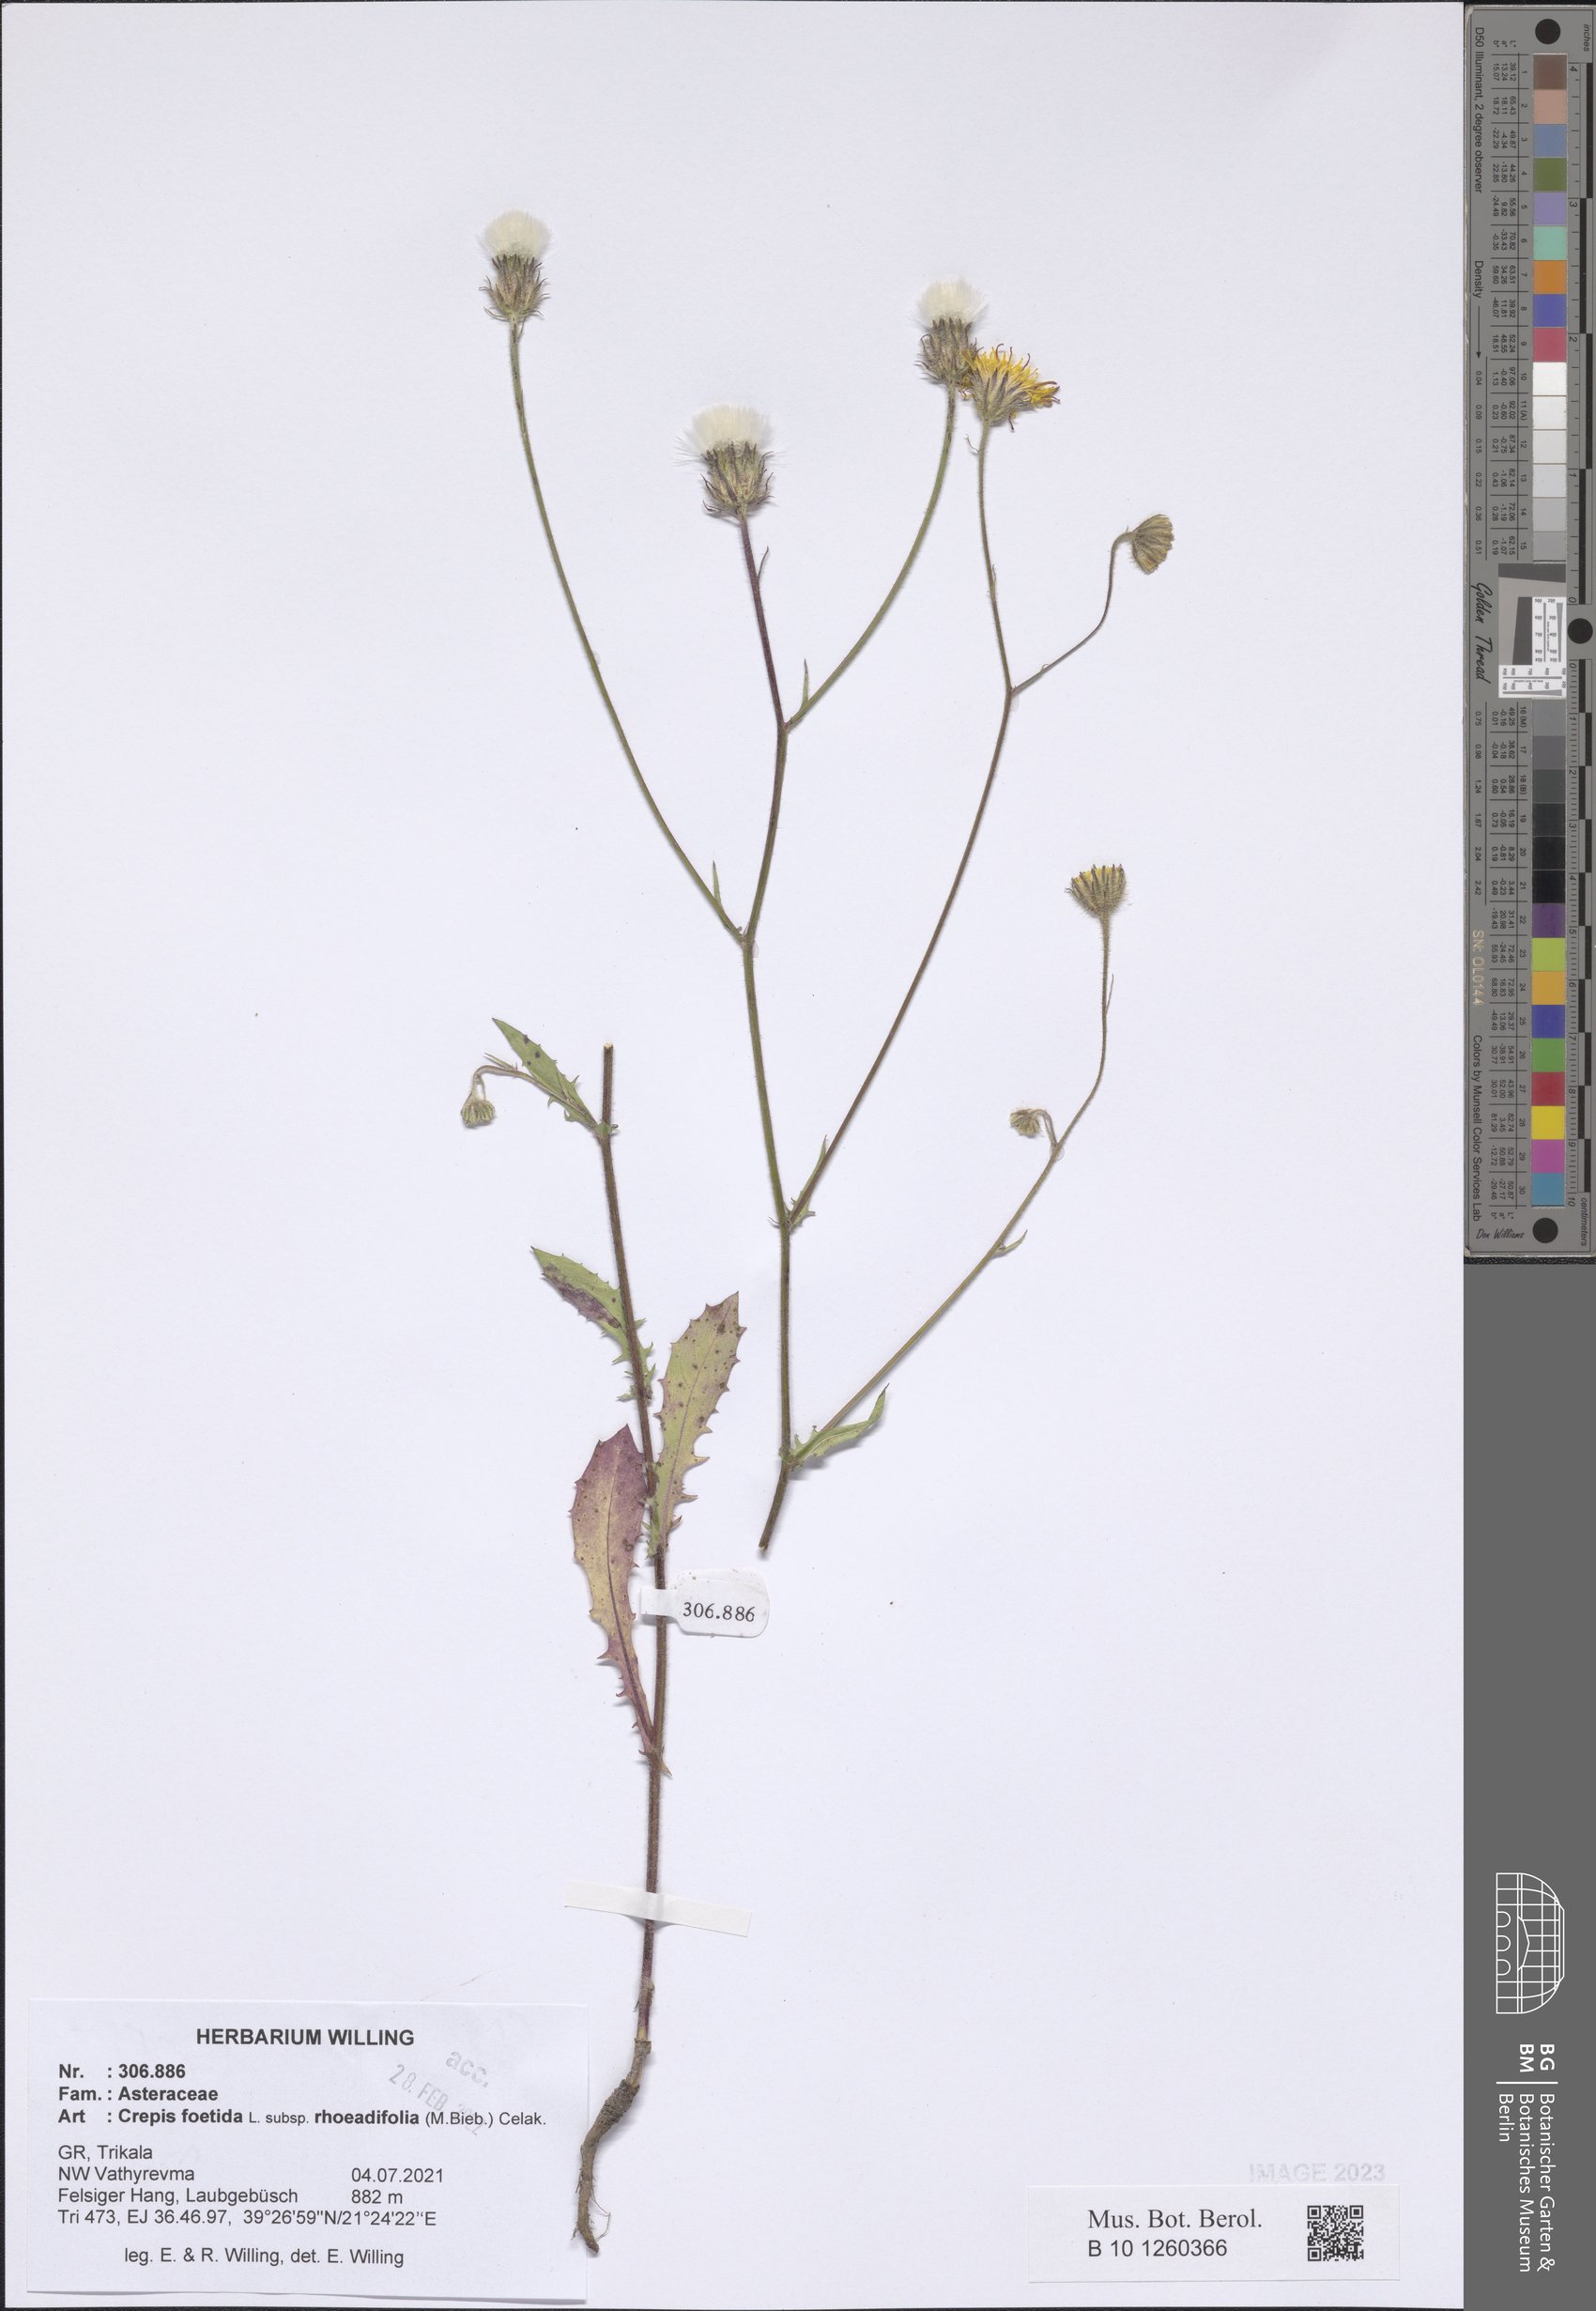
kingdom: Plantae
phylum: Tracheophyta
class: Magnoliopsida
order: Asterales
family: Asteraceae
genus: Crepis
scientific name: Crepis foetida
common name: Stinking hawk's-beard
